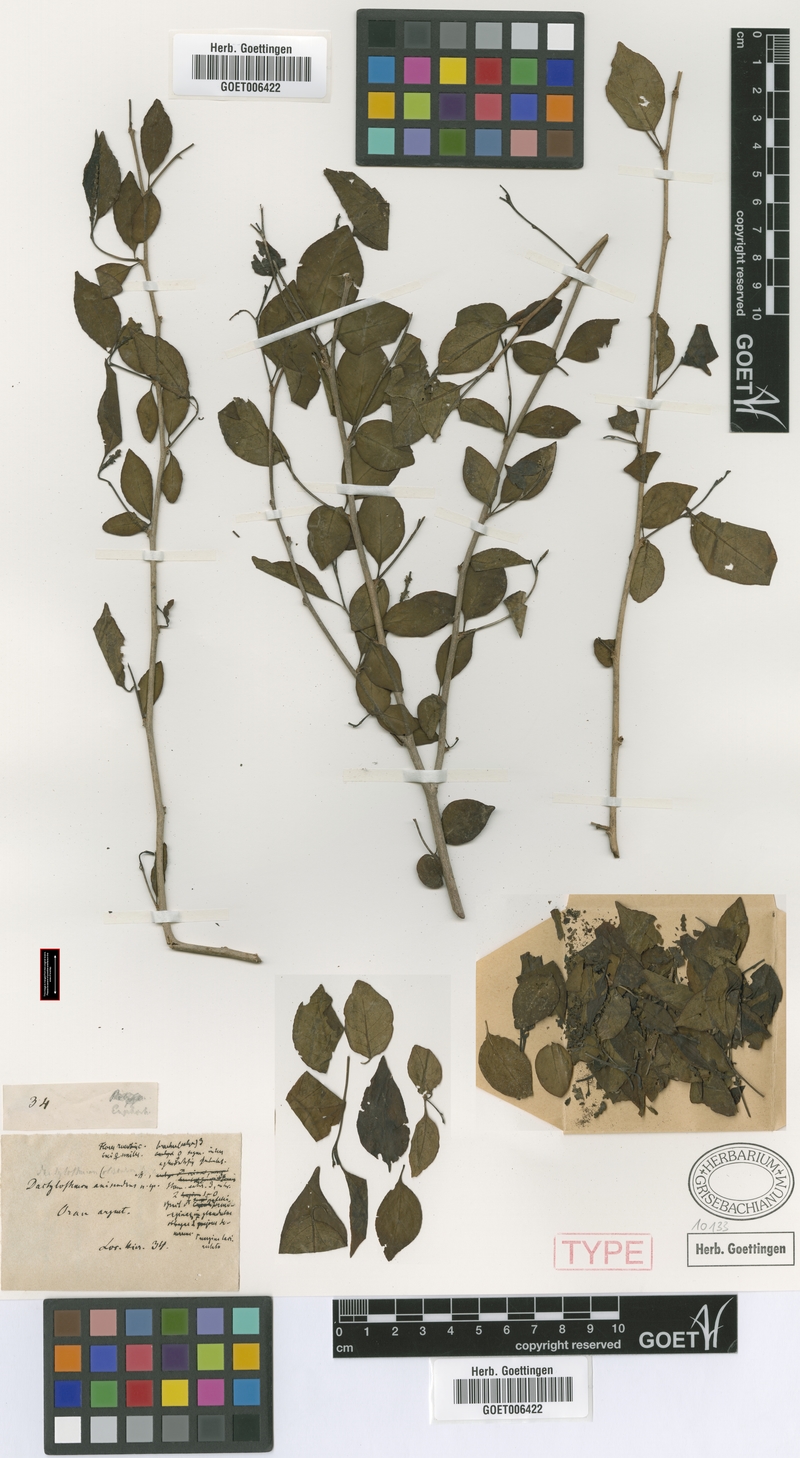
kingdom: Plantae
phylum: Tracheophyta
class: Magnoliopsida
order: Malpighiales
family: Euphorbiaceae
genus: Sebastiania
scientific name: Sebastiania ramosissima
